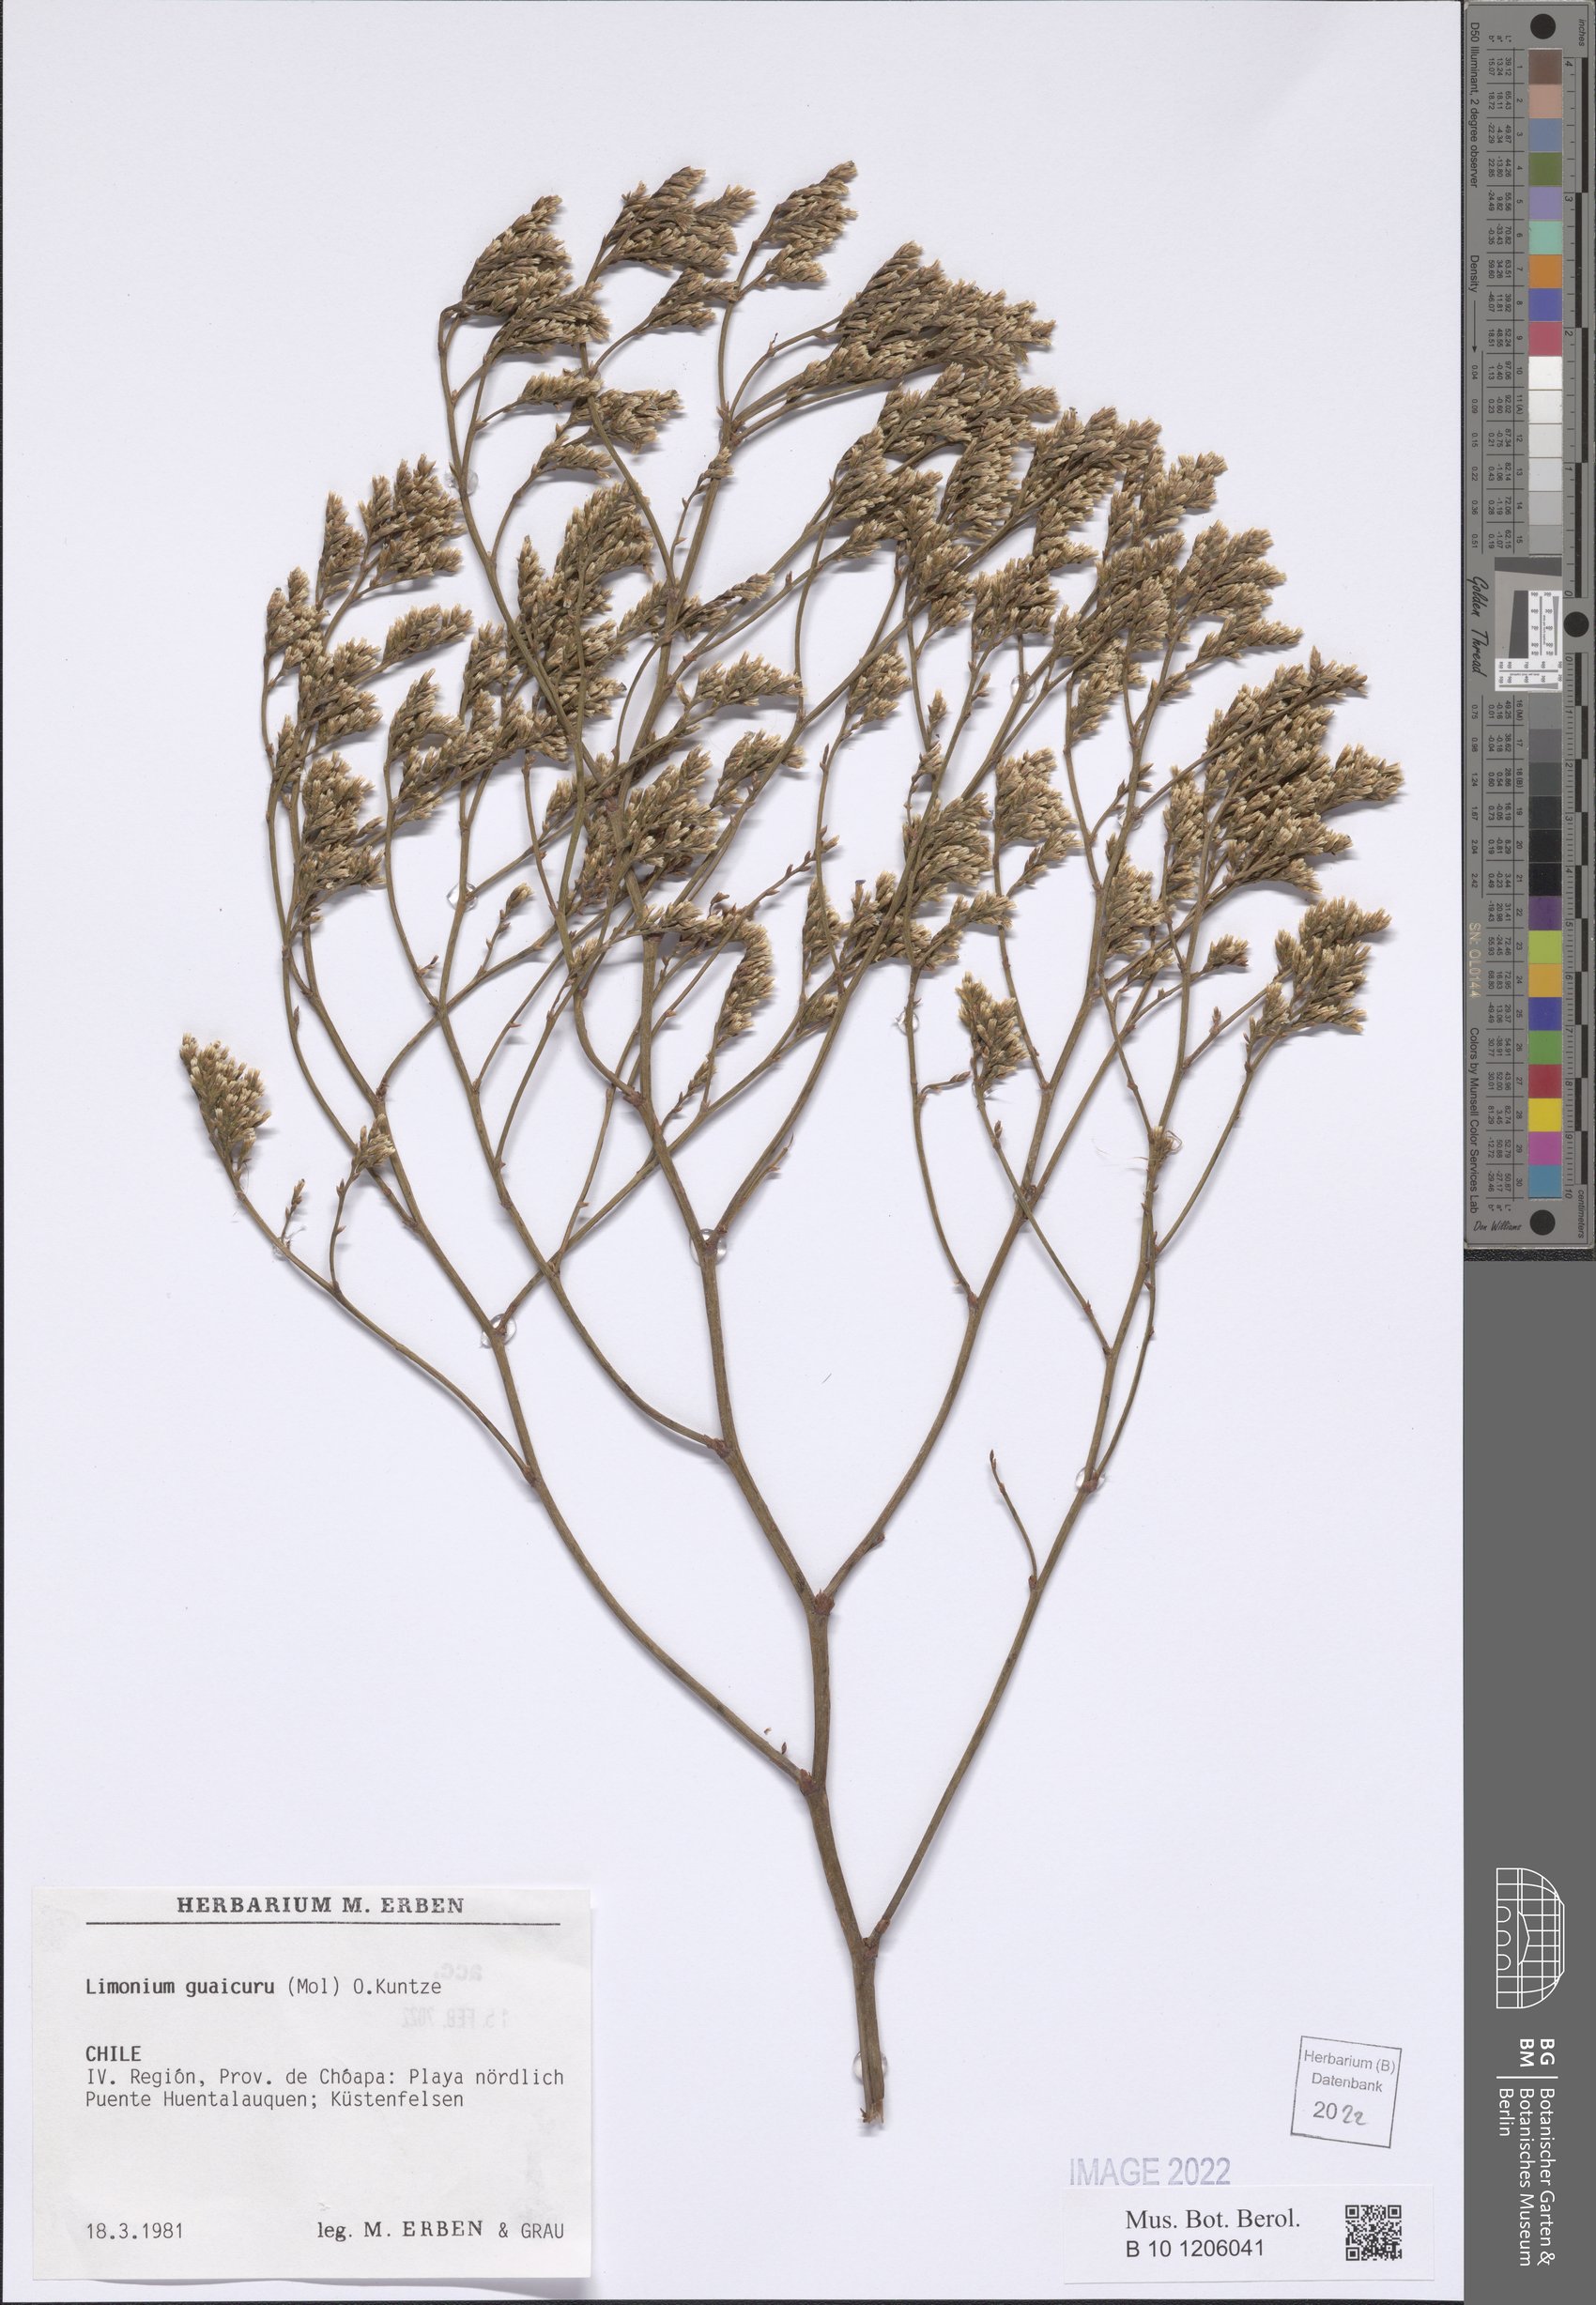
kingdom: Plantae
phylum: Tracheophyta
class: Magnoliopsida
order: Caryophyllales
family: Plumbaginaceae
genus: Limonium
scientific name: Limonium guaicuru
